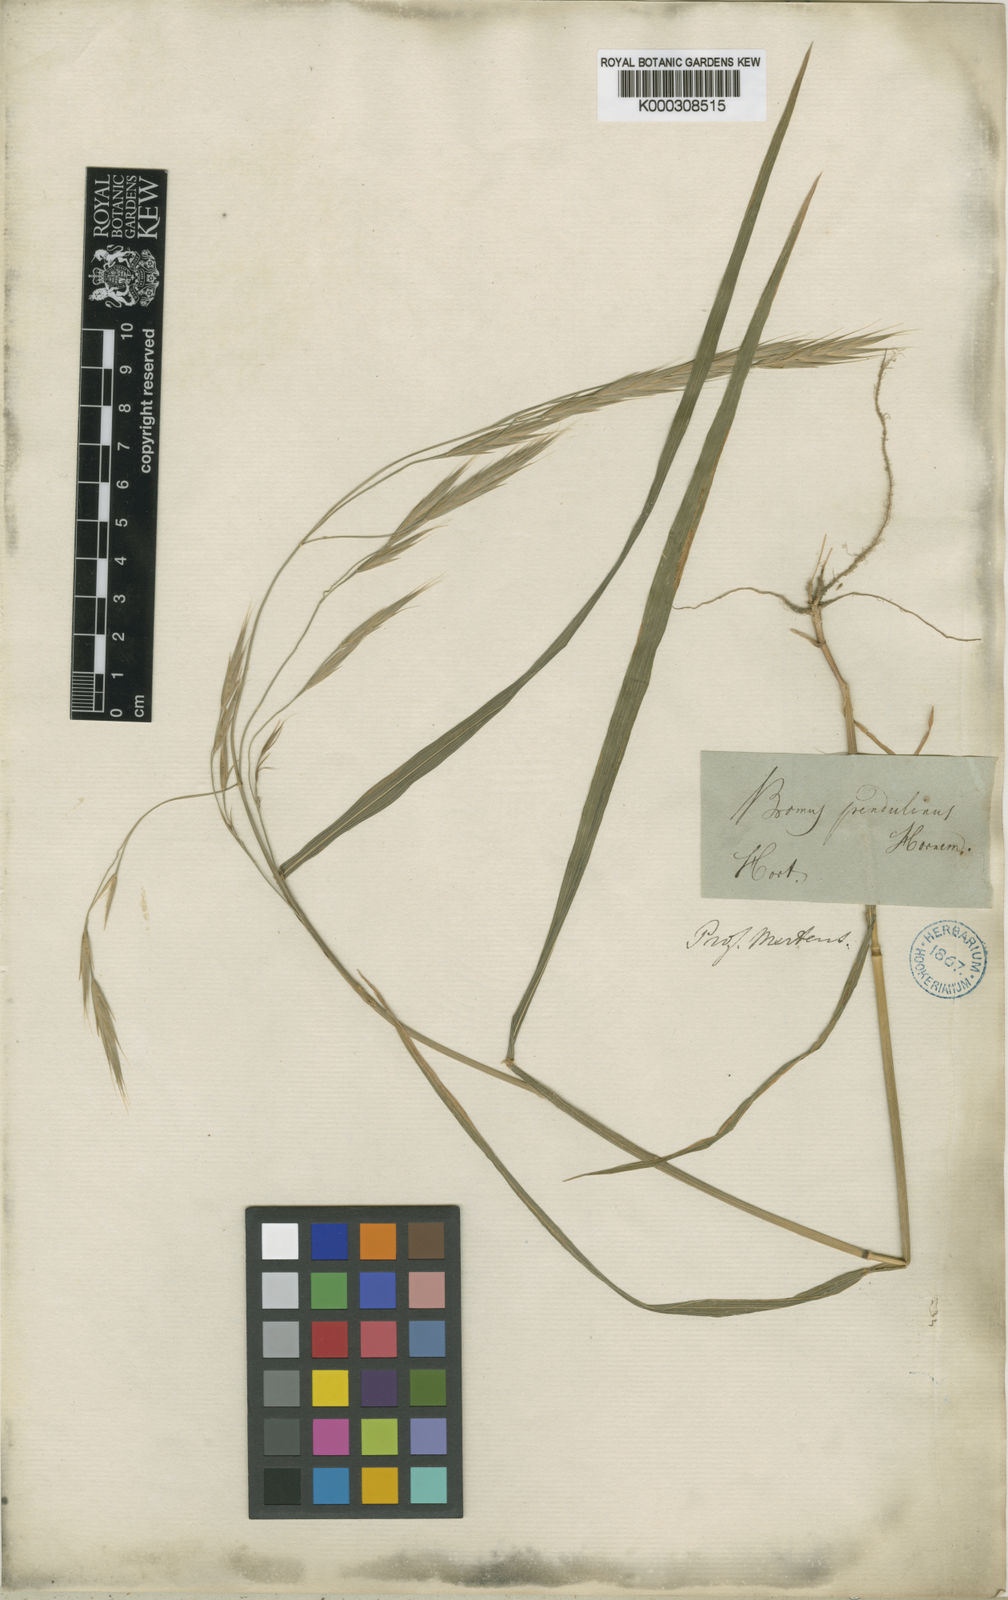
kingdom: Plantae
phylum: Tracheophyta
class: Liliopsida
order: Poales
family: Poaceae
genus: Bromus
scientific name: Bromus carinatus
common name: Mountain brome
